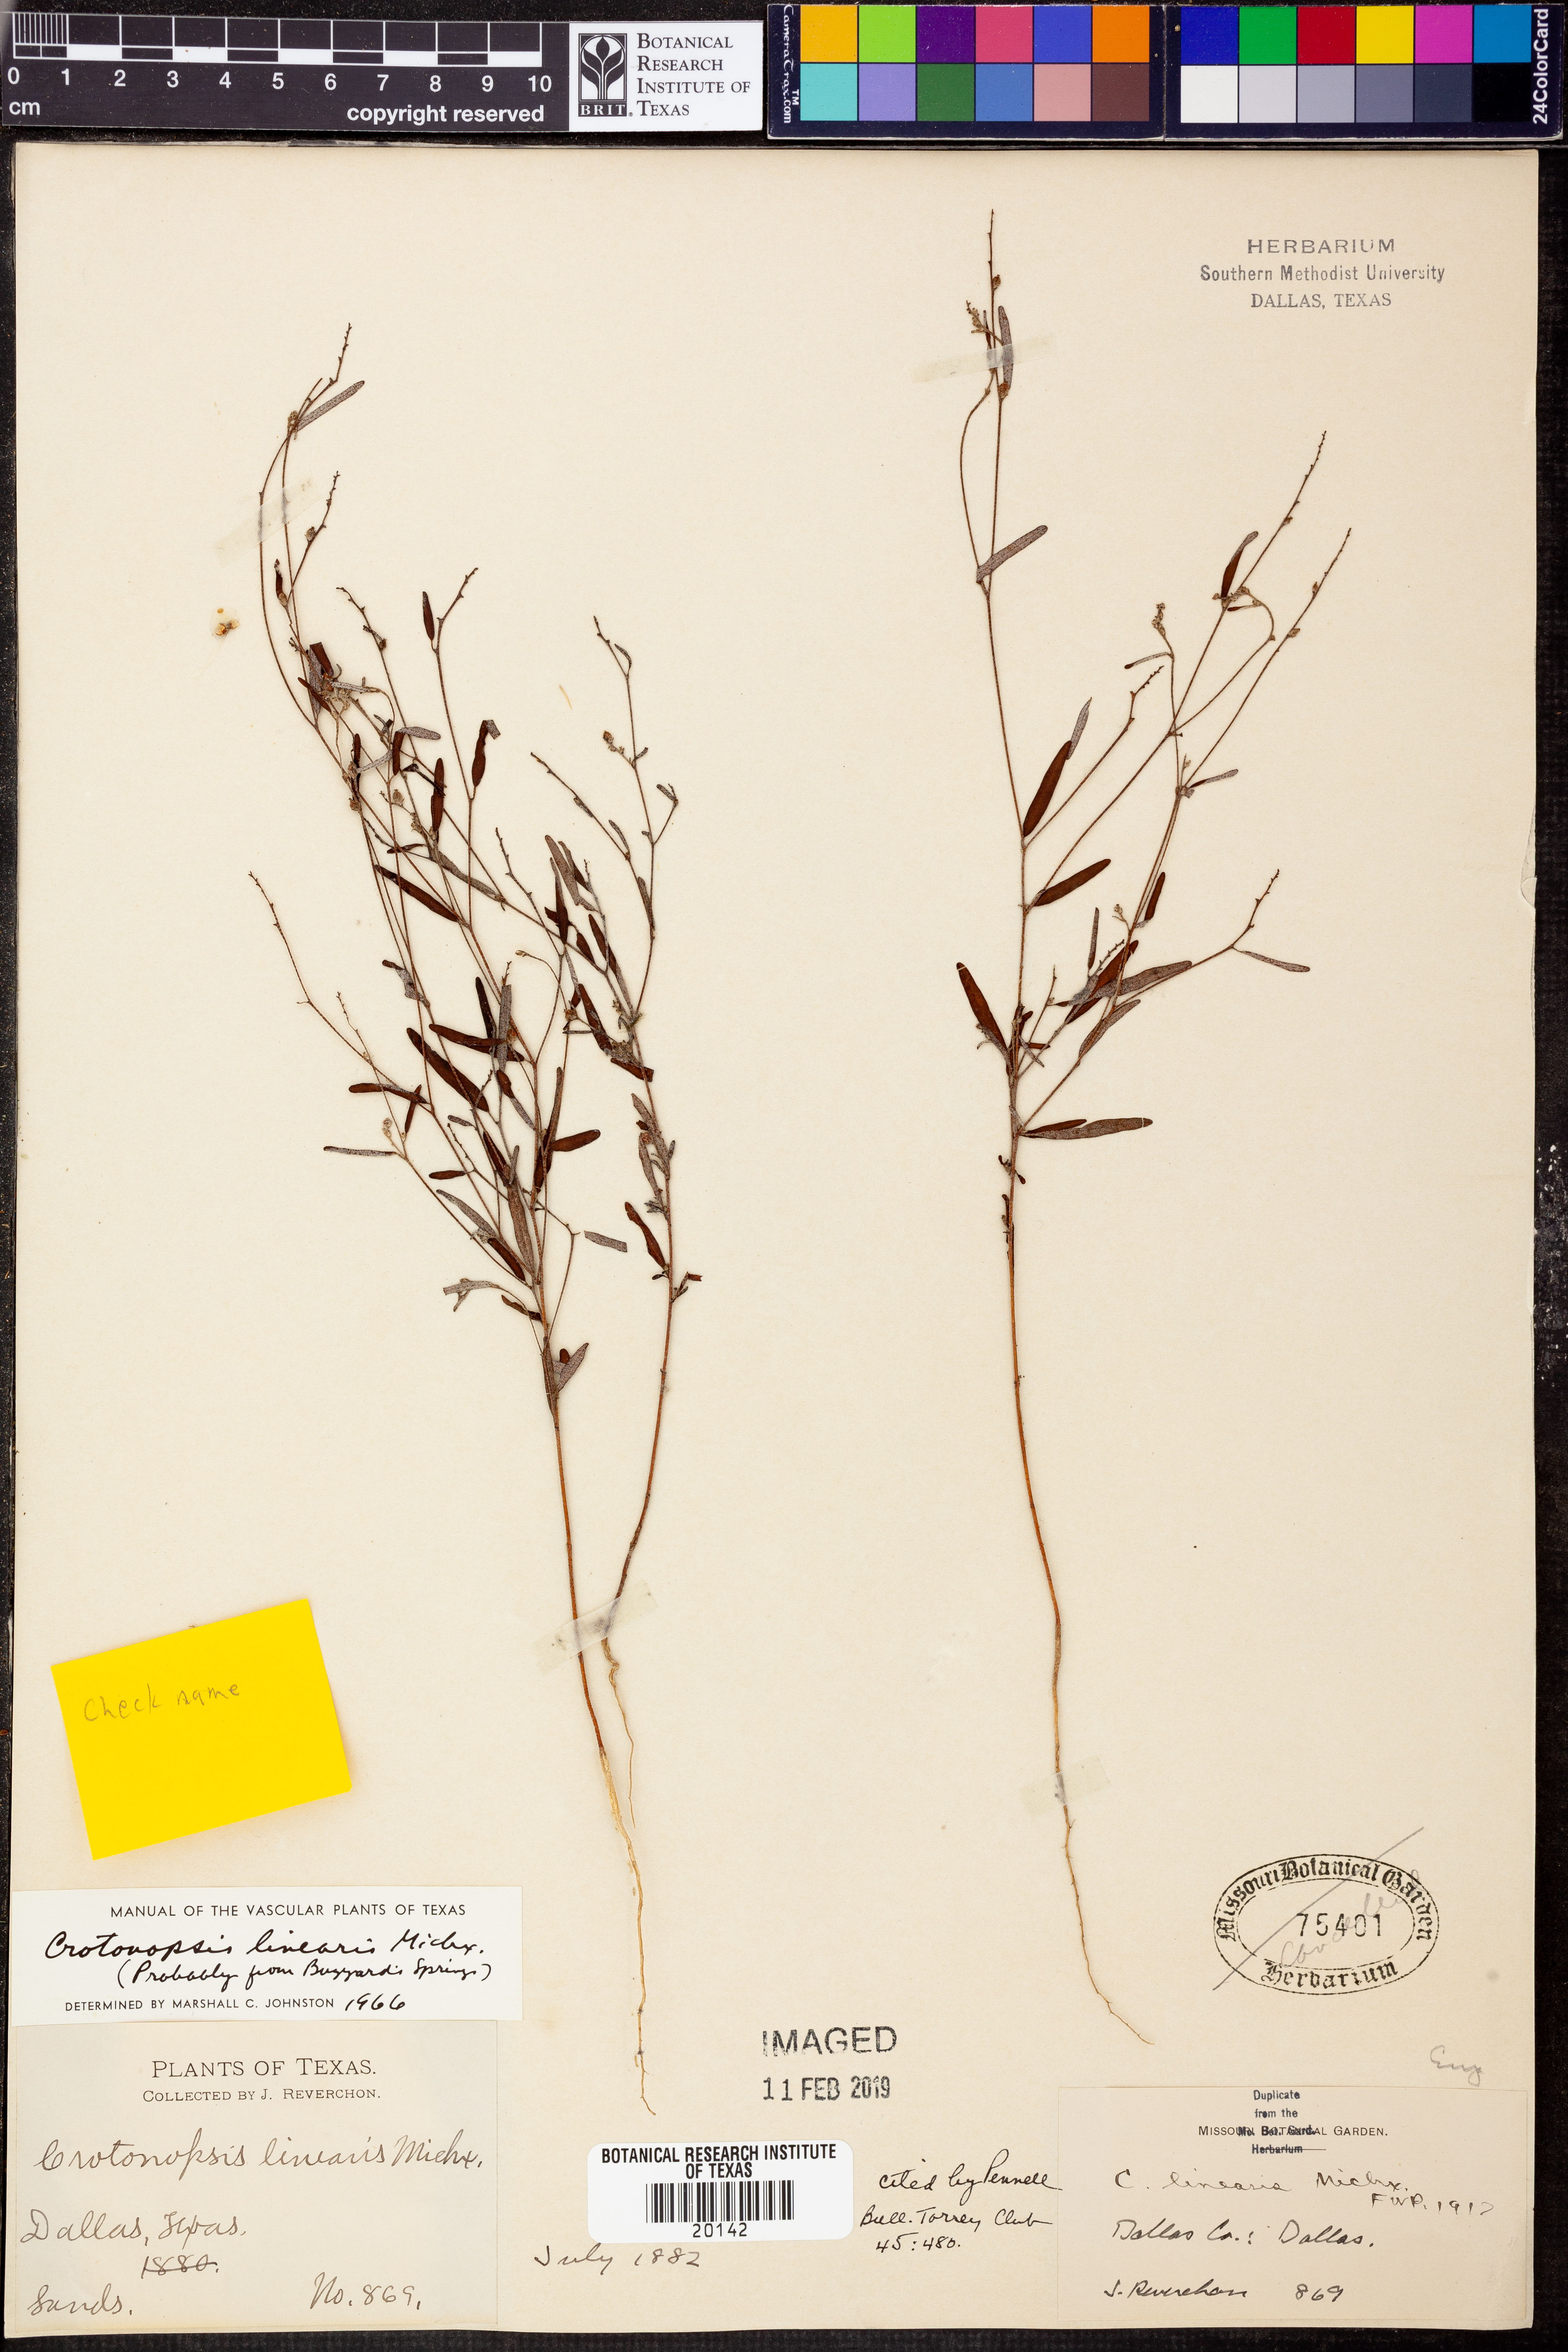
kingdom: Plantae
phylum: Tracheophyta
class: Magnoliopsida
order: Malpighiales
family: Euphorbiaceae
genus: Croton
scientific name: Croton michauxii
